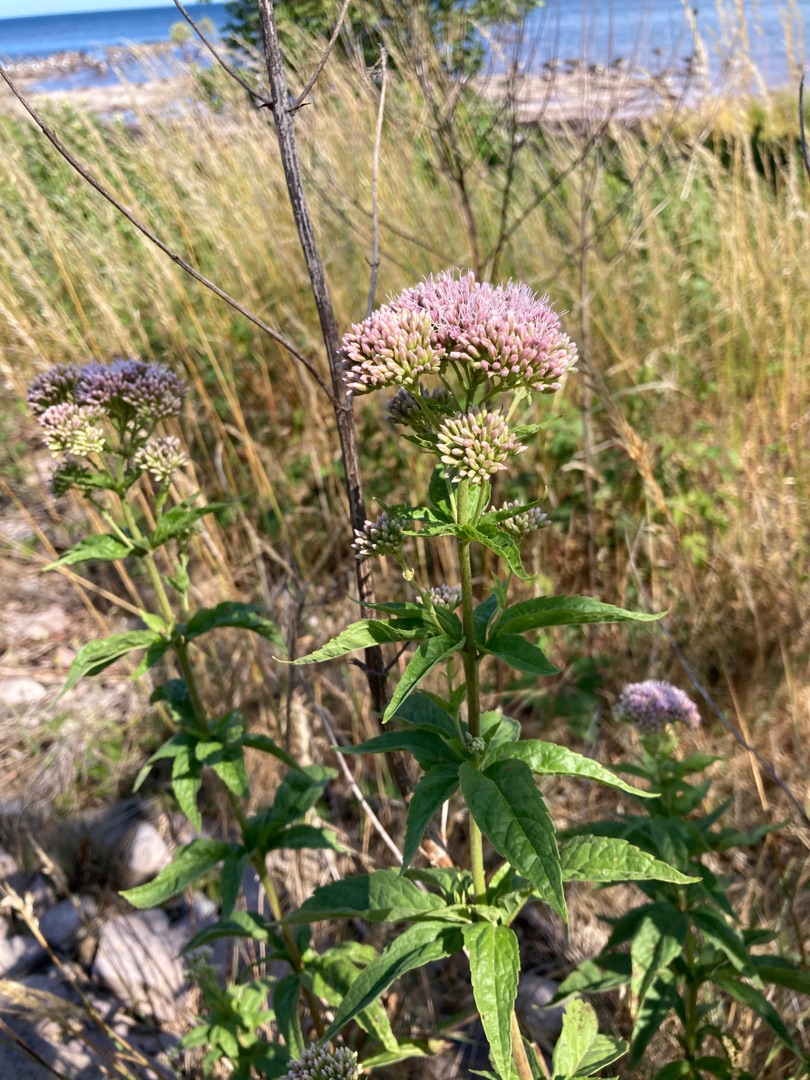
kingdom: Plantae
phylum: Tracheophyta
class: Magnoliopsida
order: Asterales
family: Asteraceae
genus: Eupatorium
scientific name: Eupatorium cannabinum
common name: Hjortetrøst
